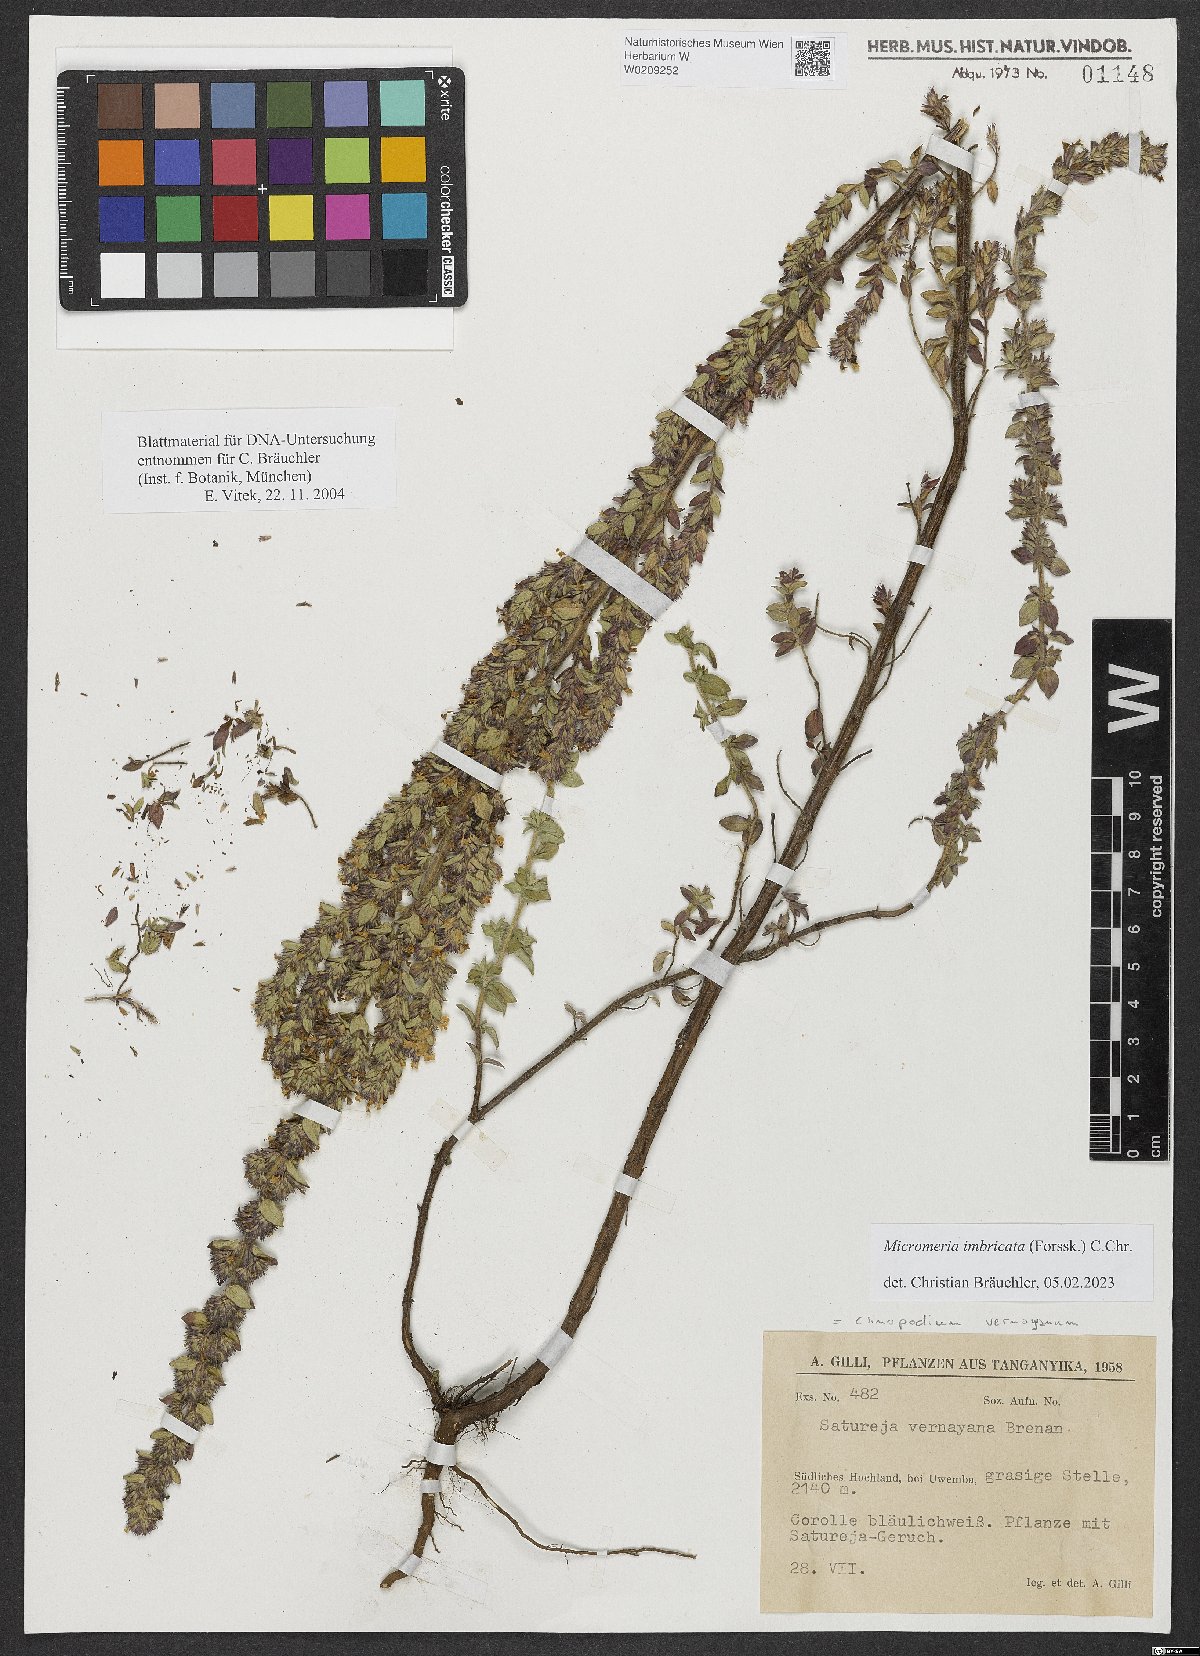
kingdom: Plantae
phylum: Tracheophyta
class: Magnoliopsida
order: Lamiales
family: Lamiaceae
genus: Micromeria
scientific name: Micromeria imbricata
